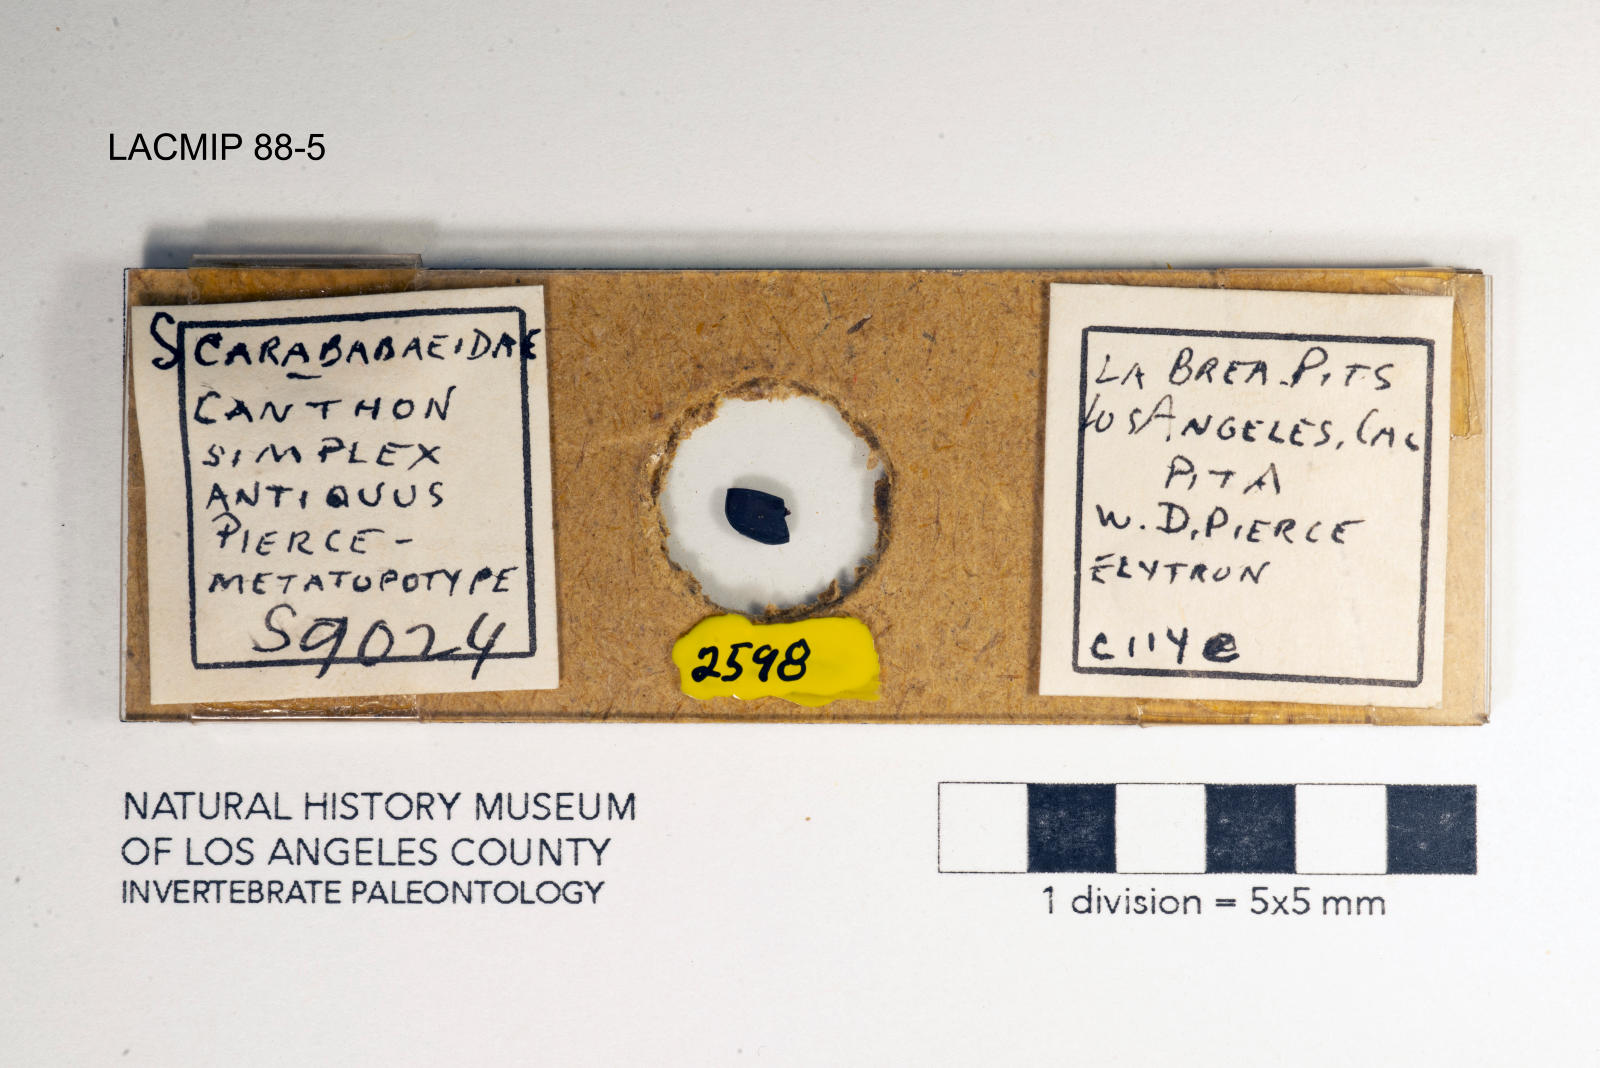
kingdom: Animalia
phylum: Arthropoda
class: Insecta
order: Coleoptera
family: Scarabaeidae
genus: Canthon
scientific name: Canthon simplex
